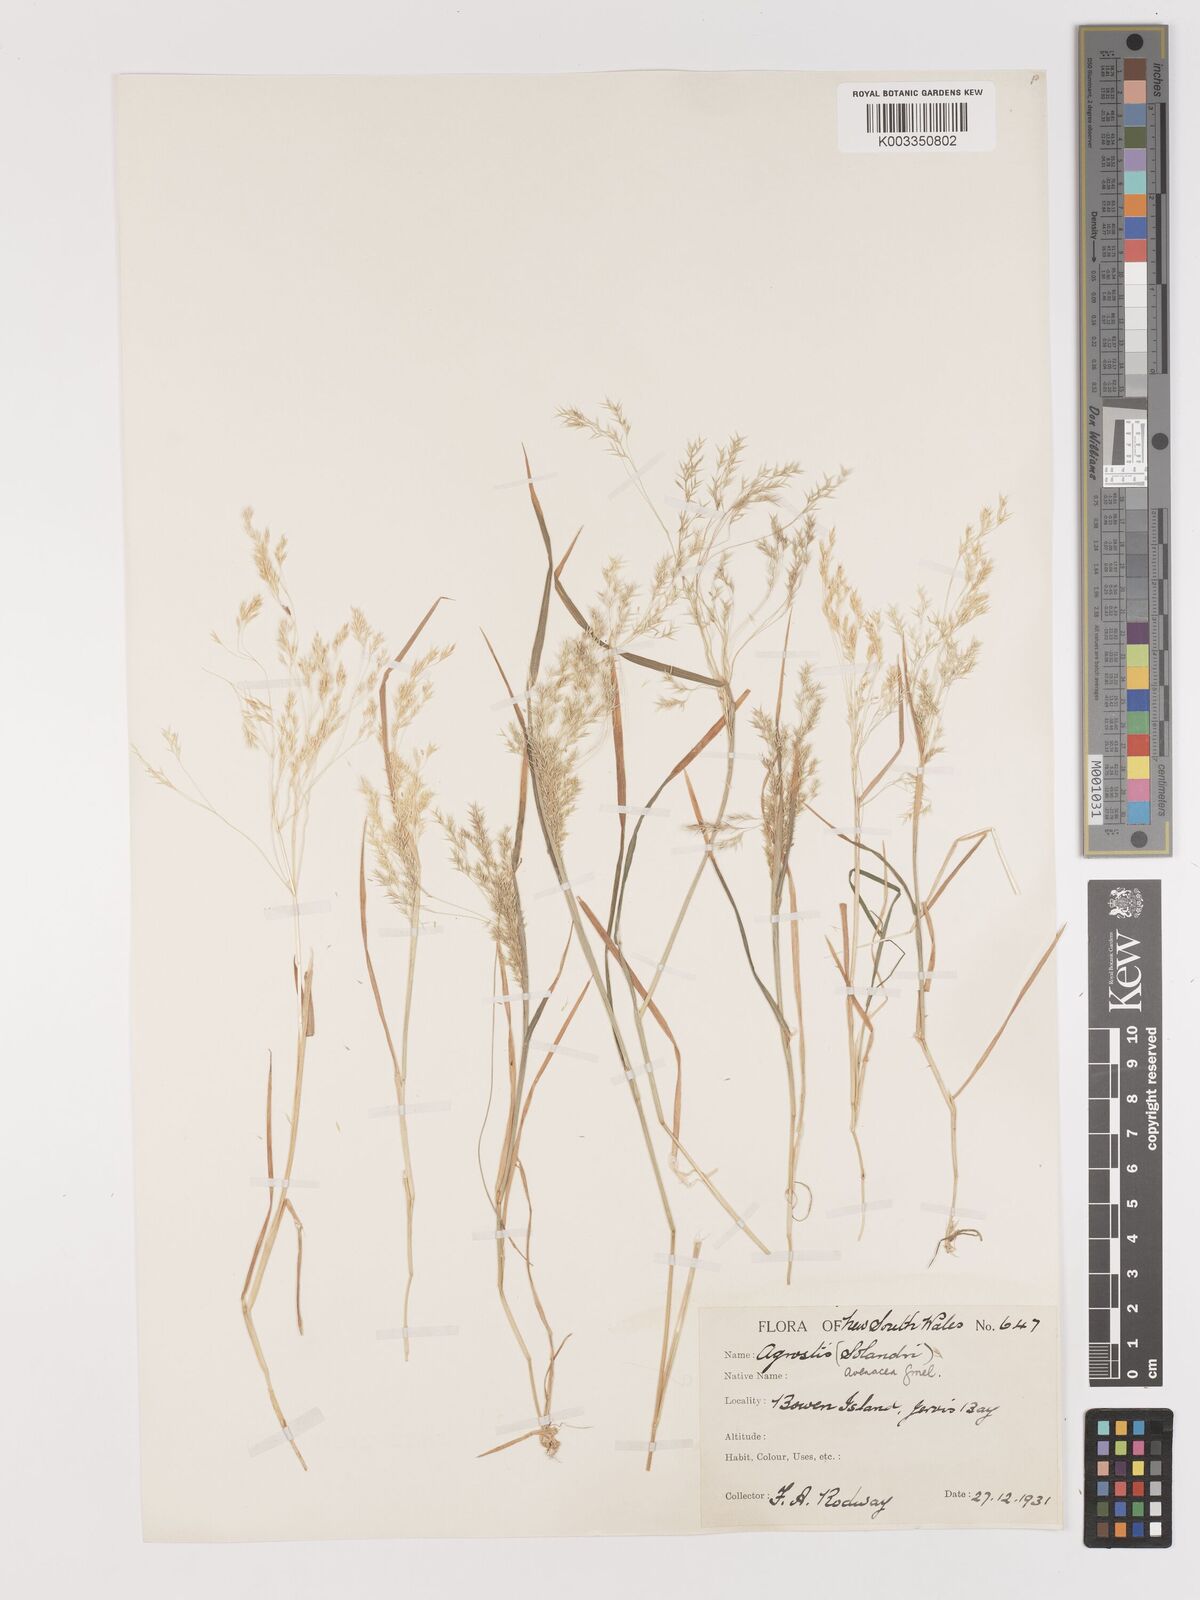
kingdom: Plantae
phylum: Tracheophyta
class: Liliopsida
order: Poales
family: Poaceae
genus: Lachnagrostis
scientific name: Lachnagrostis filiformis
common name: Bentgrass
